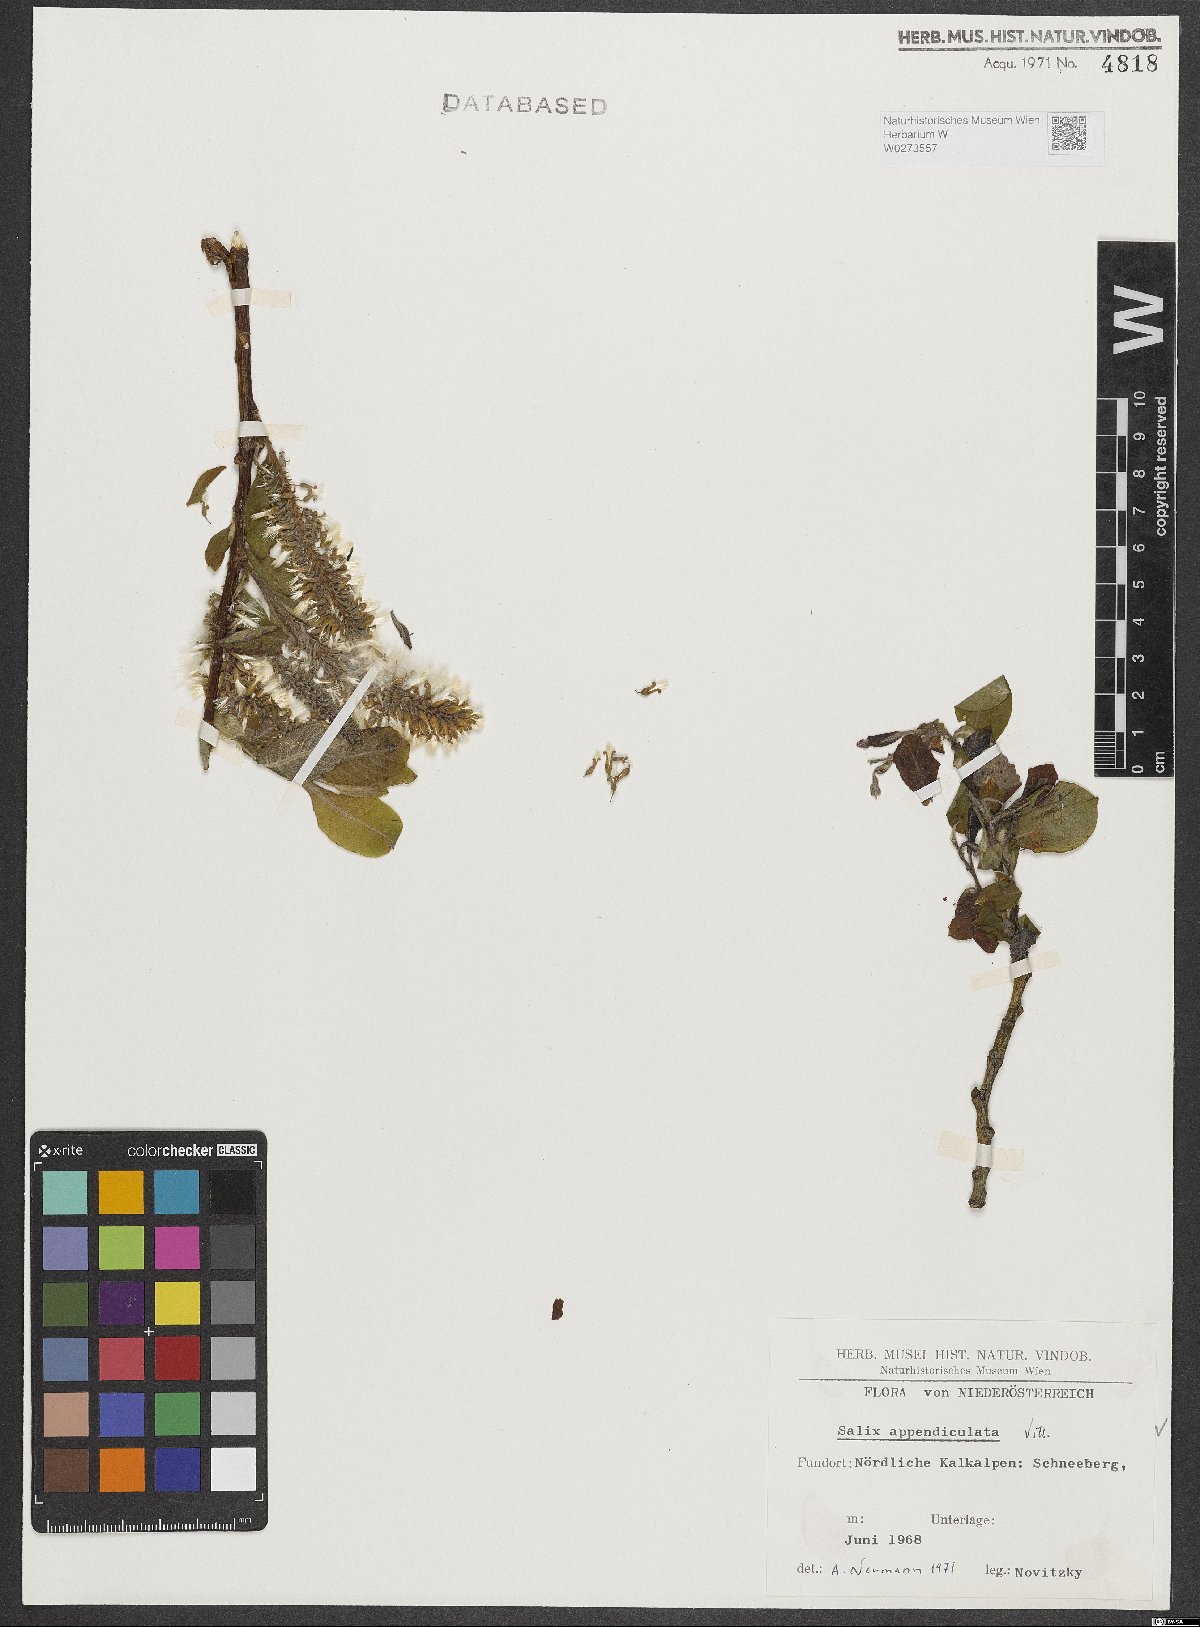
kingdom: Plantae
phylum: Tracheophyta
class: Magnoliopsida
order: Malpighiales
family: Salicaceae
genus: Salix
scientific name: Salix appendiculata
